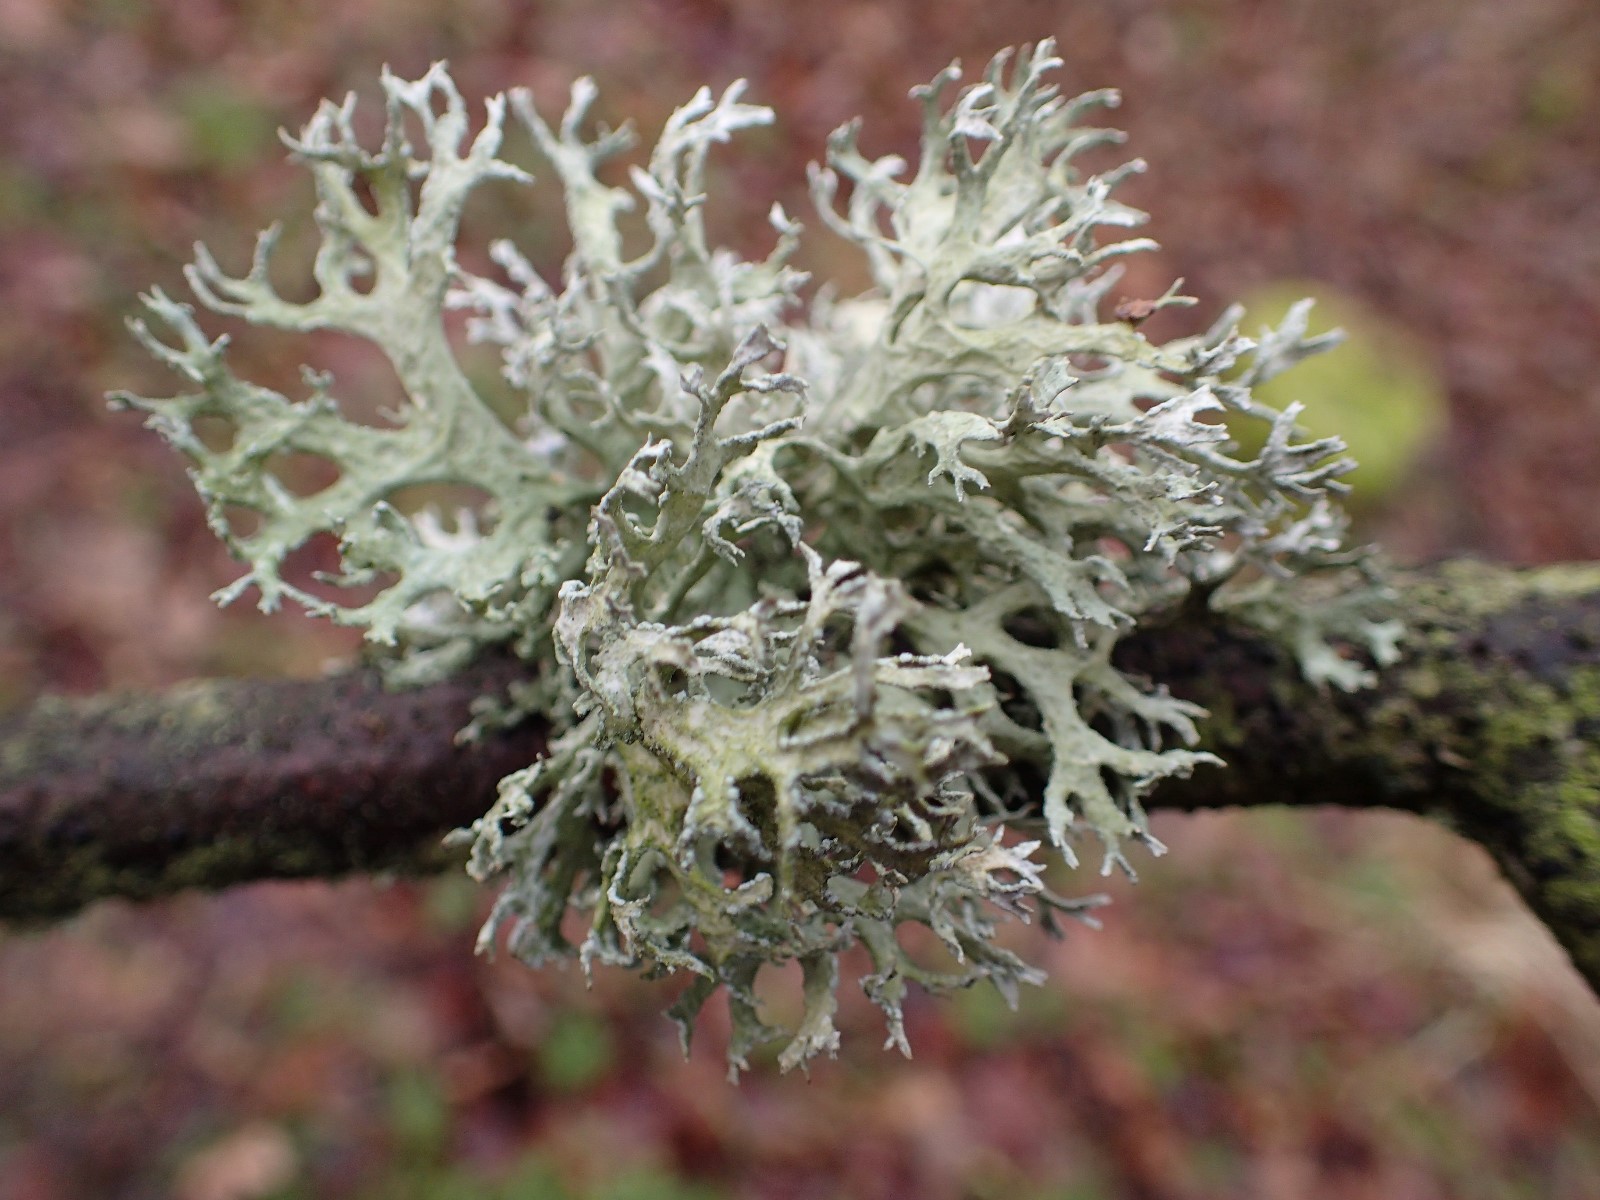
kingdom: Fungi
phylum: Ascomycota
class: Lecanoromycetes
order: Lecanorales
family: Parmeliaceae
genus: Evernia
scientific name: Evernia prunastri
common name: almindelig slåenlav
